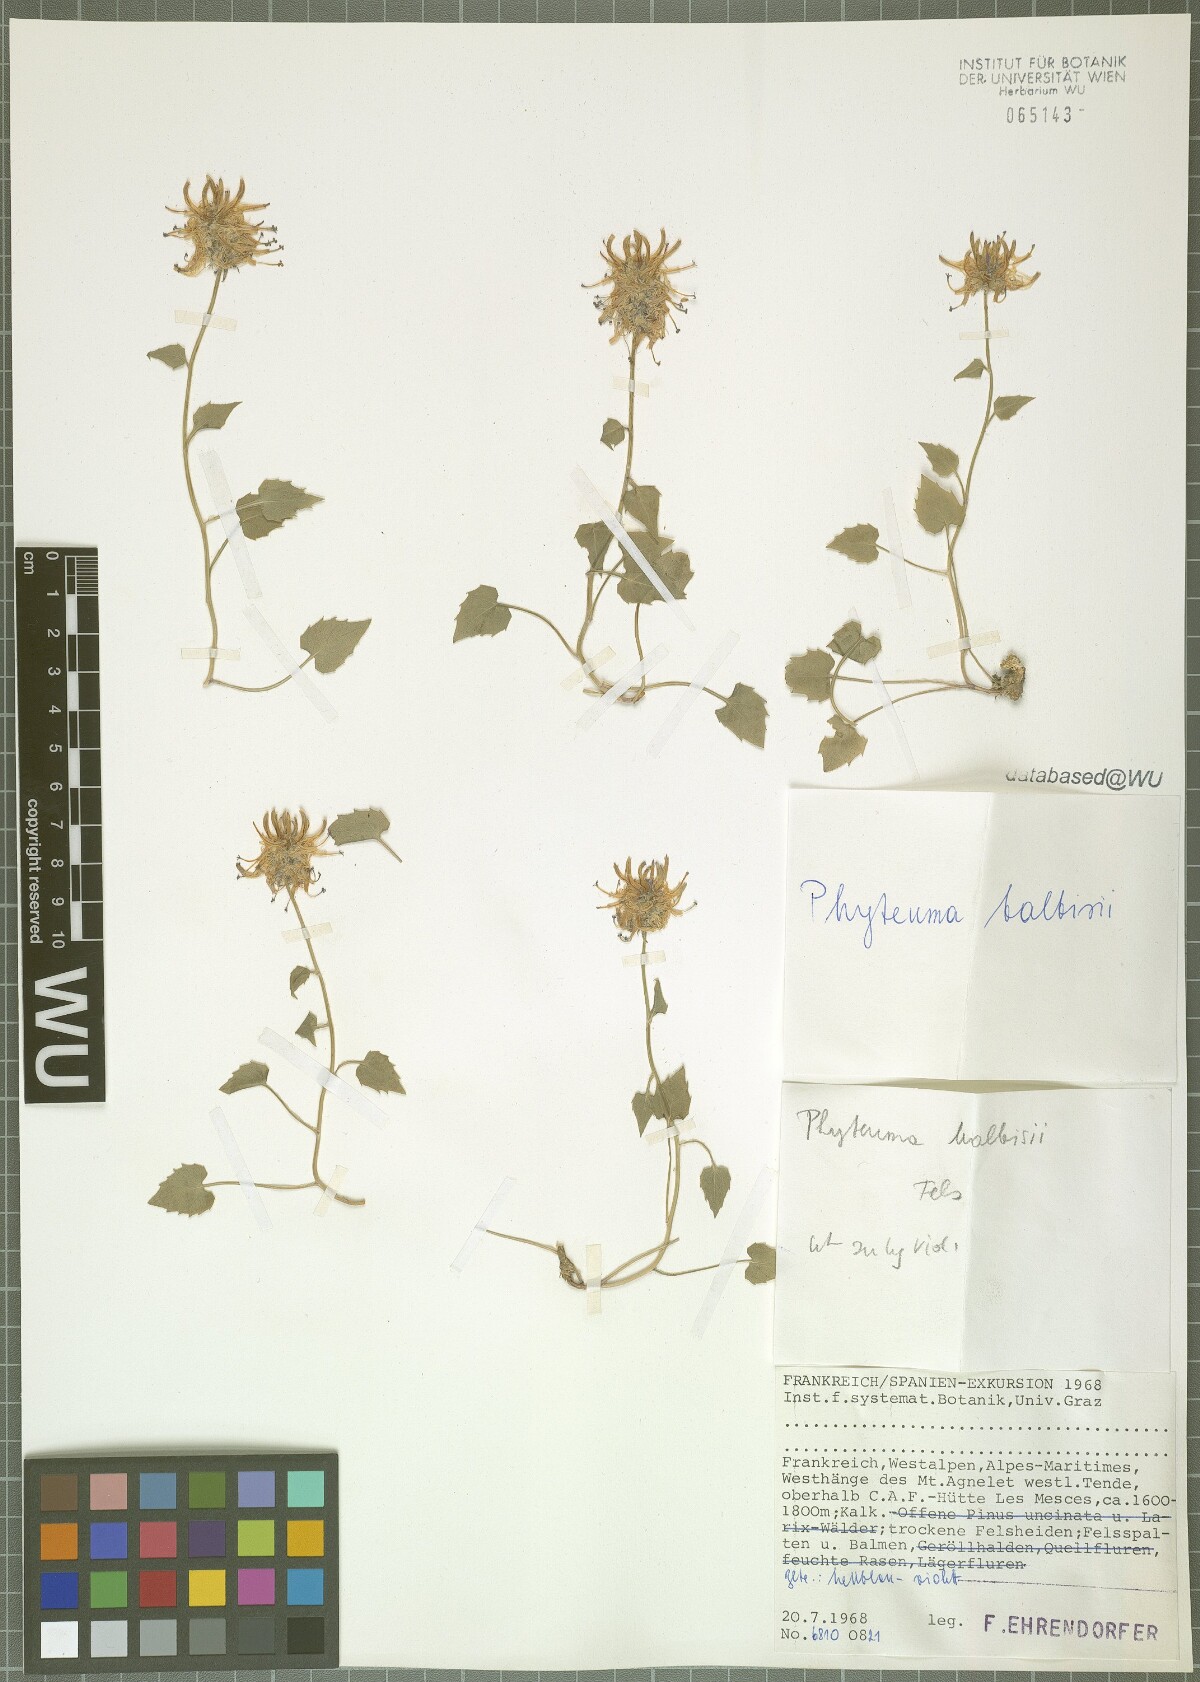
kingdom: Plantae
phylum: Tracheophyta
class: Magnoliopsida
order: Asterales
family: Campanulaceae
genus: Phyteuma
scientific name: Phyteuma cordatum
